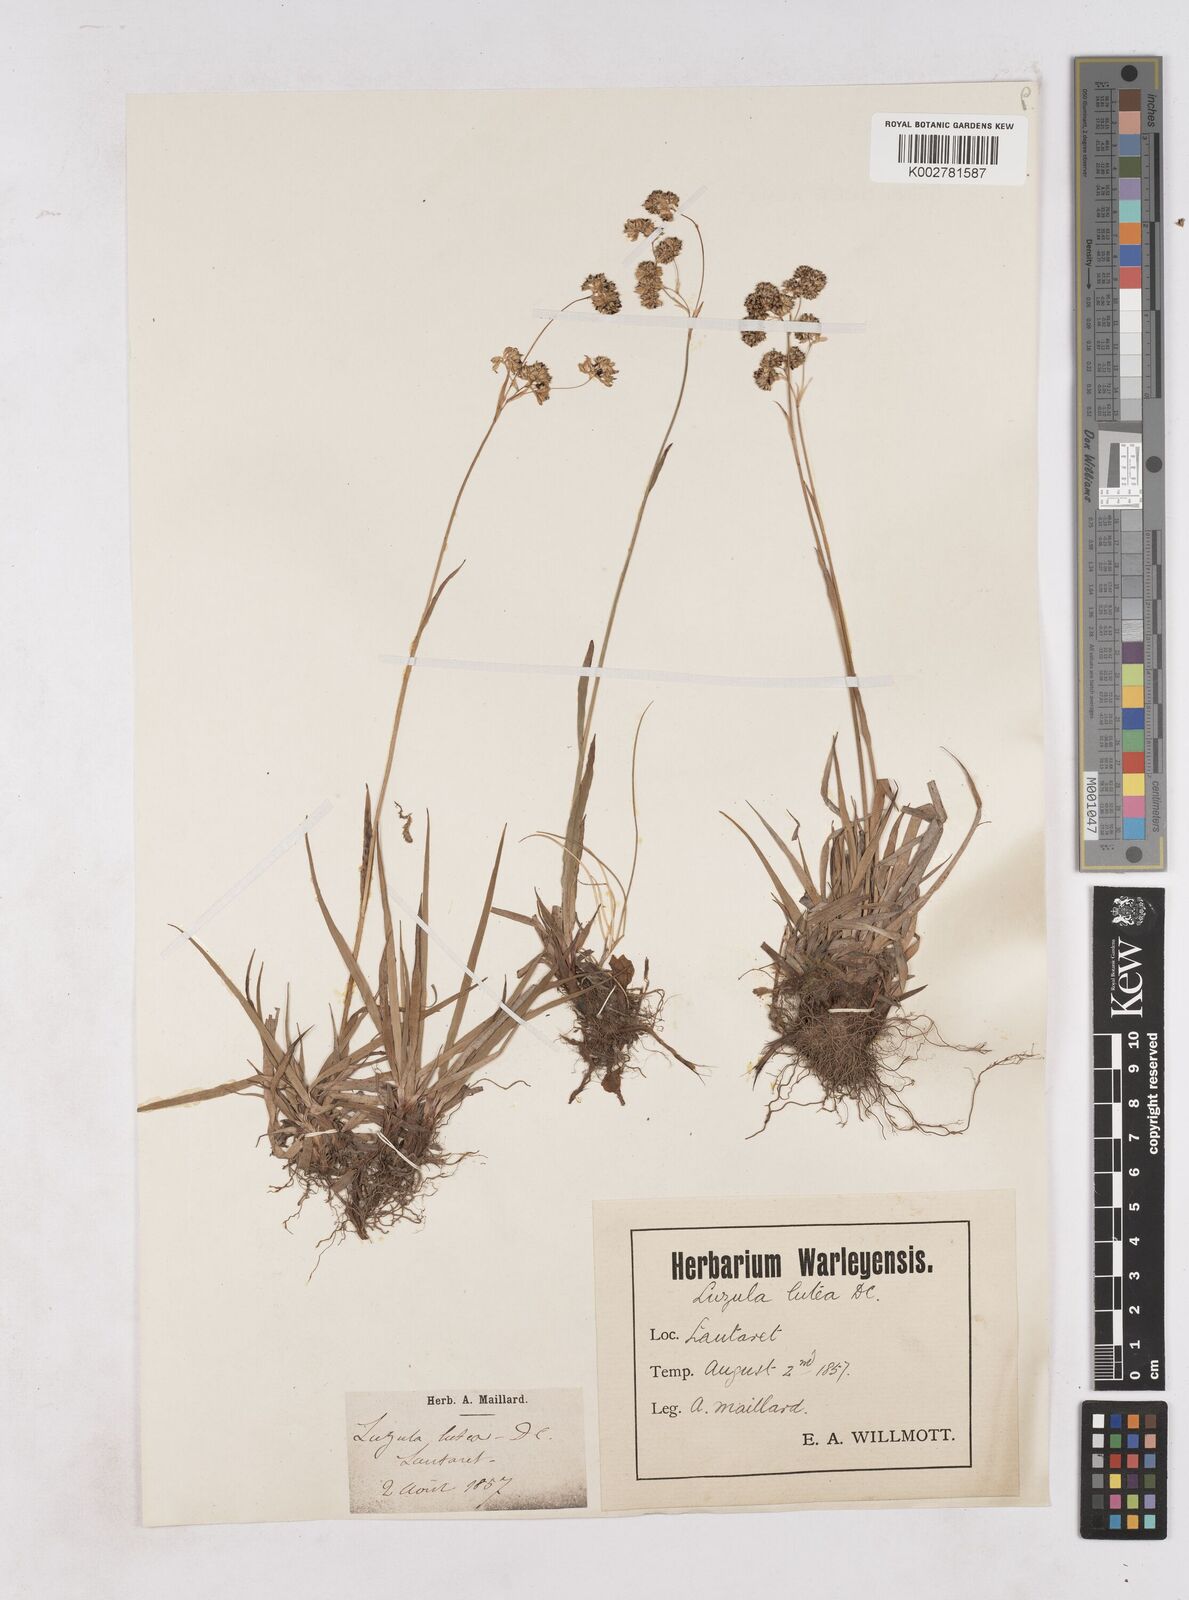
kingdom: Plantae
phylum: Tracheophyta
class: Liliopsida
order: Poales
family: Juncaceae
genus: Luzula
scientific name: Luzula lutea
